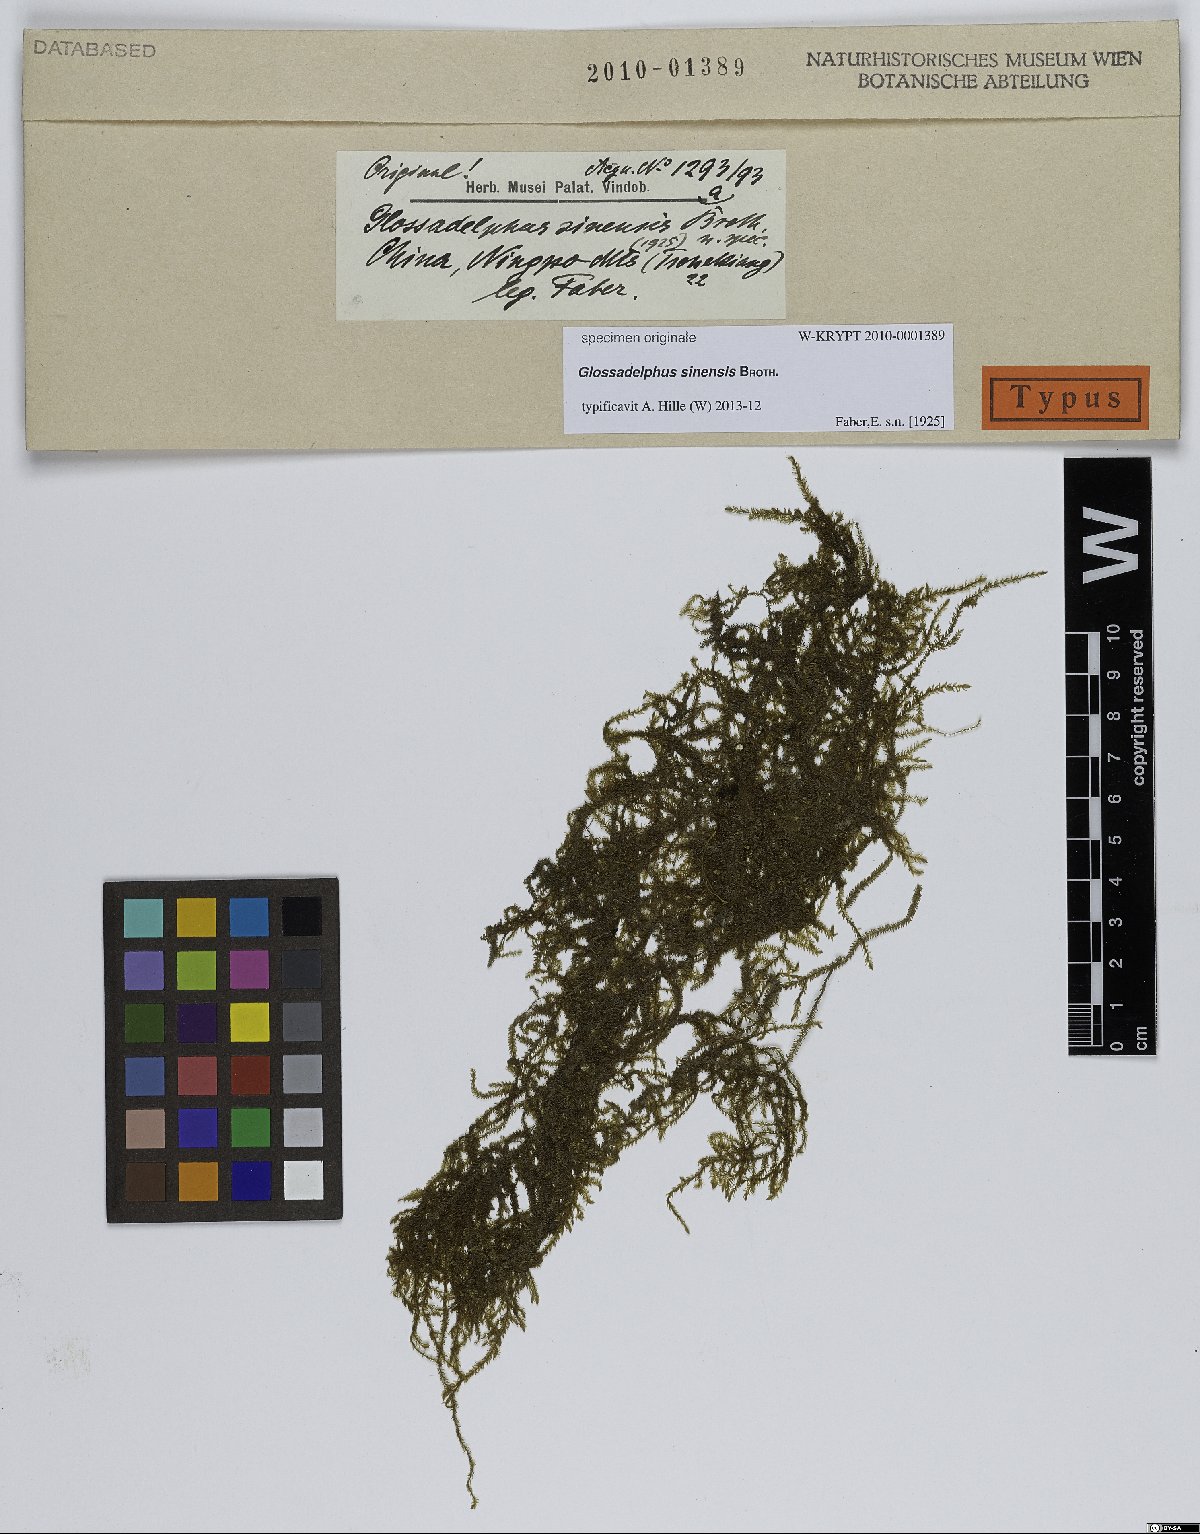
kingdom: Plantae
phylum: Bryophyta
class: Bryopsida
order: Hypnales
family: Hypnaceae
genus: Glossadelphus
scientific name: Glossadelphus
